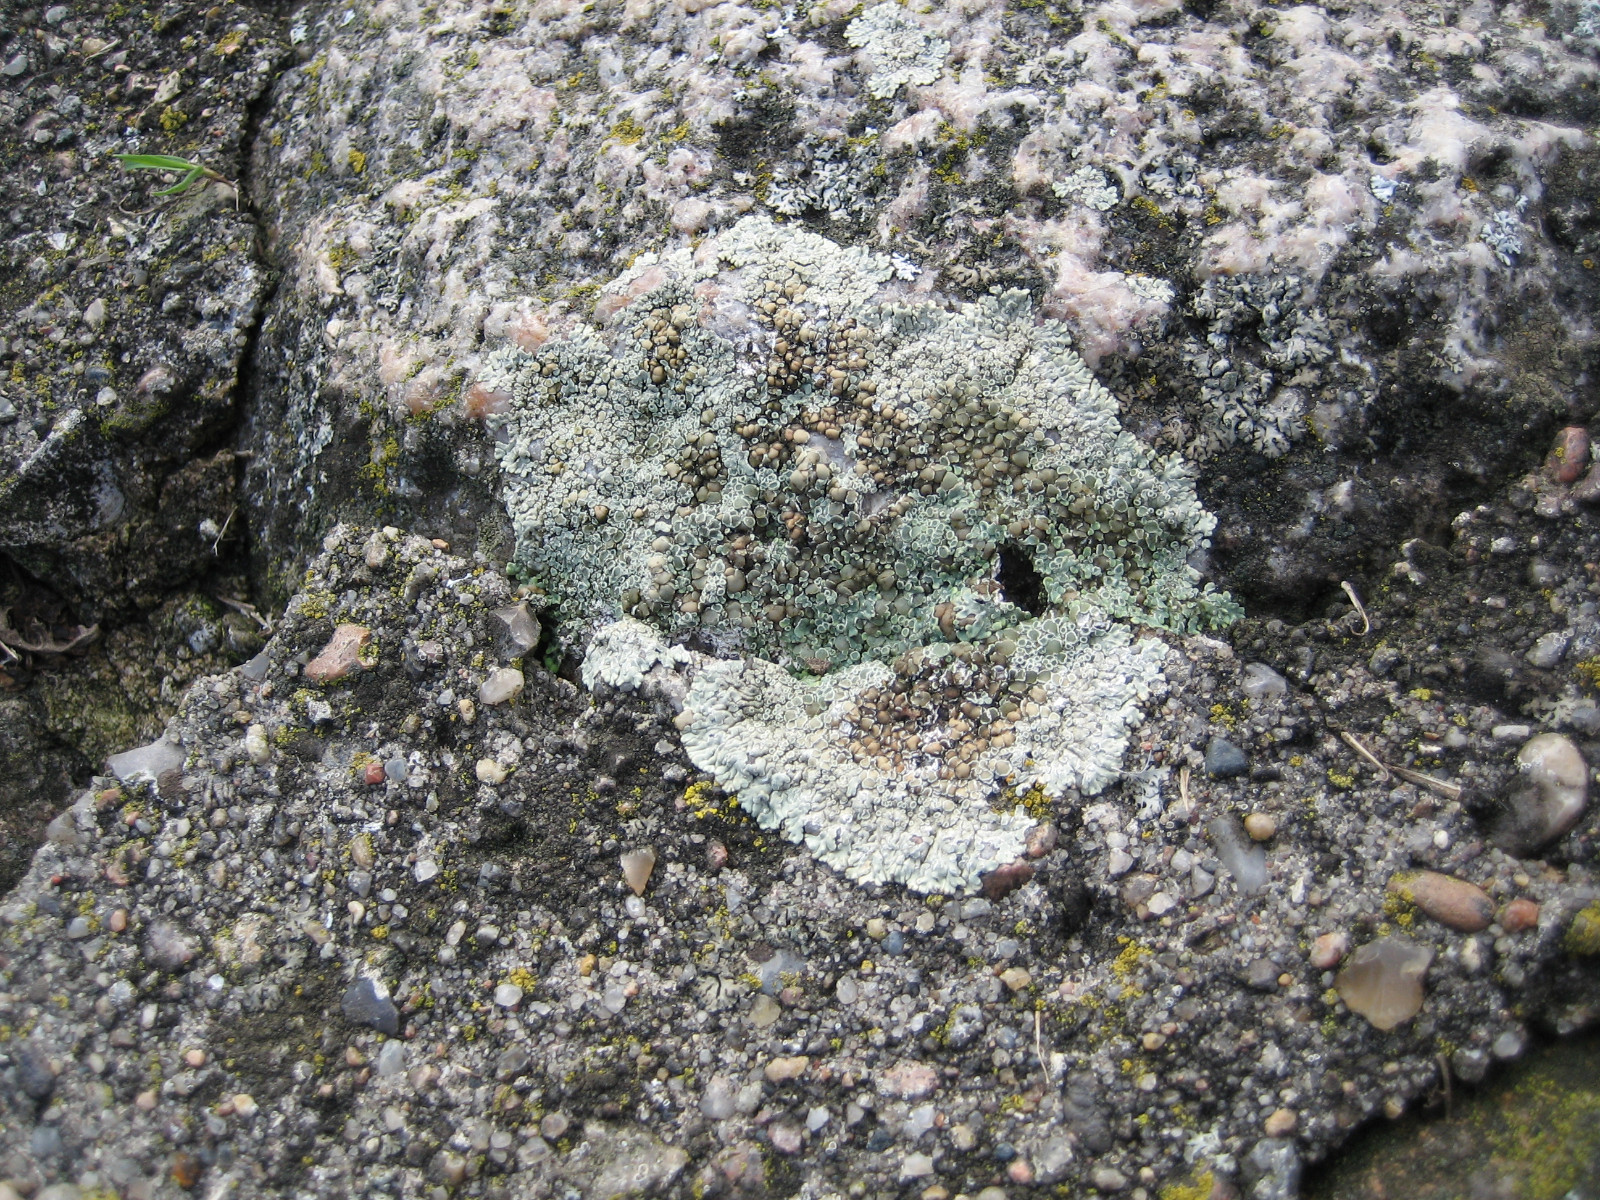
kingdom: Fungi
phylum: Ascomycota
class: Lecanoromycetes
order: Lecanorales
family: Lecanoraceae
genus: Protoparmeliopsis
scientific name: Protoparmeliopsis muralis
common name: randfliget kantskivelav
